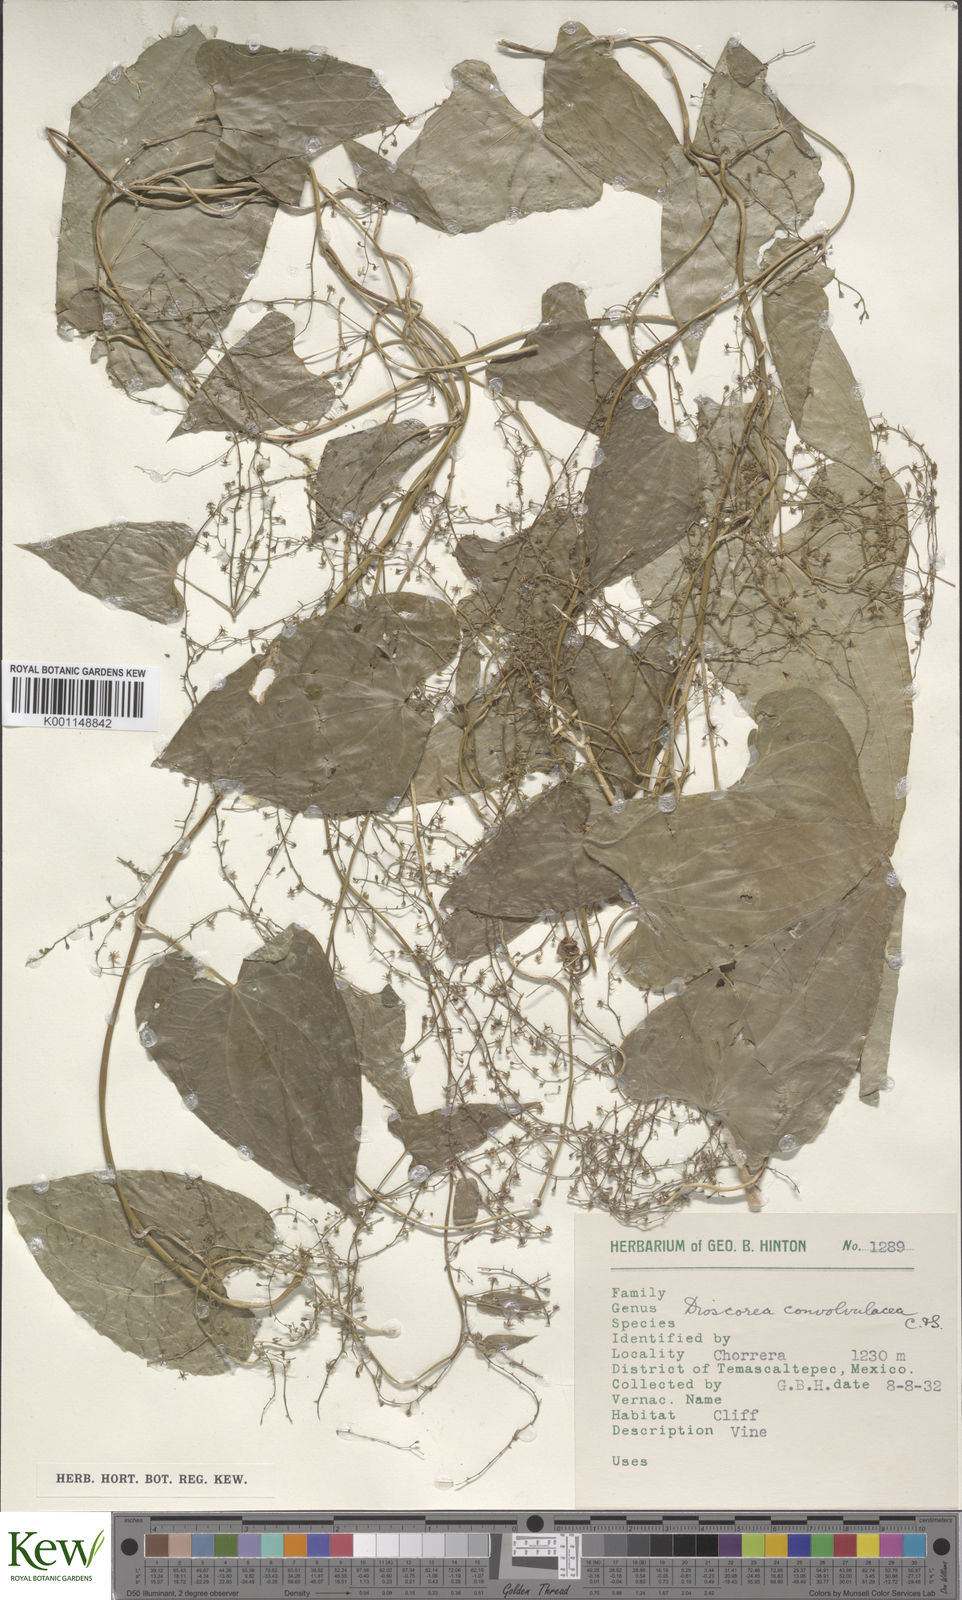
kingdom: Plantae
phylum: Tracheophyta
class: Liliopsida
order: Dioscoreales
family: Dioscoreaceae
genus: Dioscorea
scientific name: Dioscorea convolvulacea
